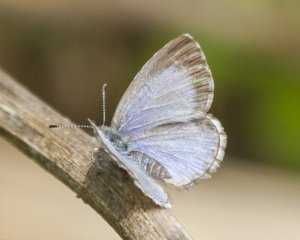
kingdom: Animalia
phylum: Arthropoda
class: Insecta
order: Lepidoptera
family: Lycaenidae
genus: Celastrina
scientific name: Celastrina lucia
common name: Northern Spring Azure
